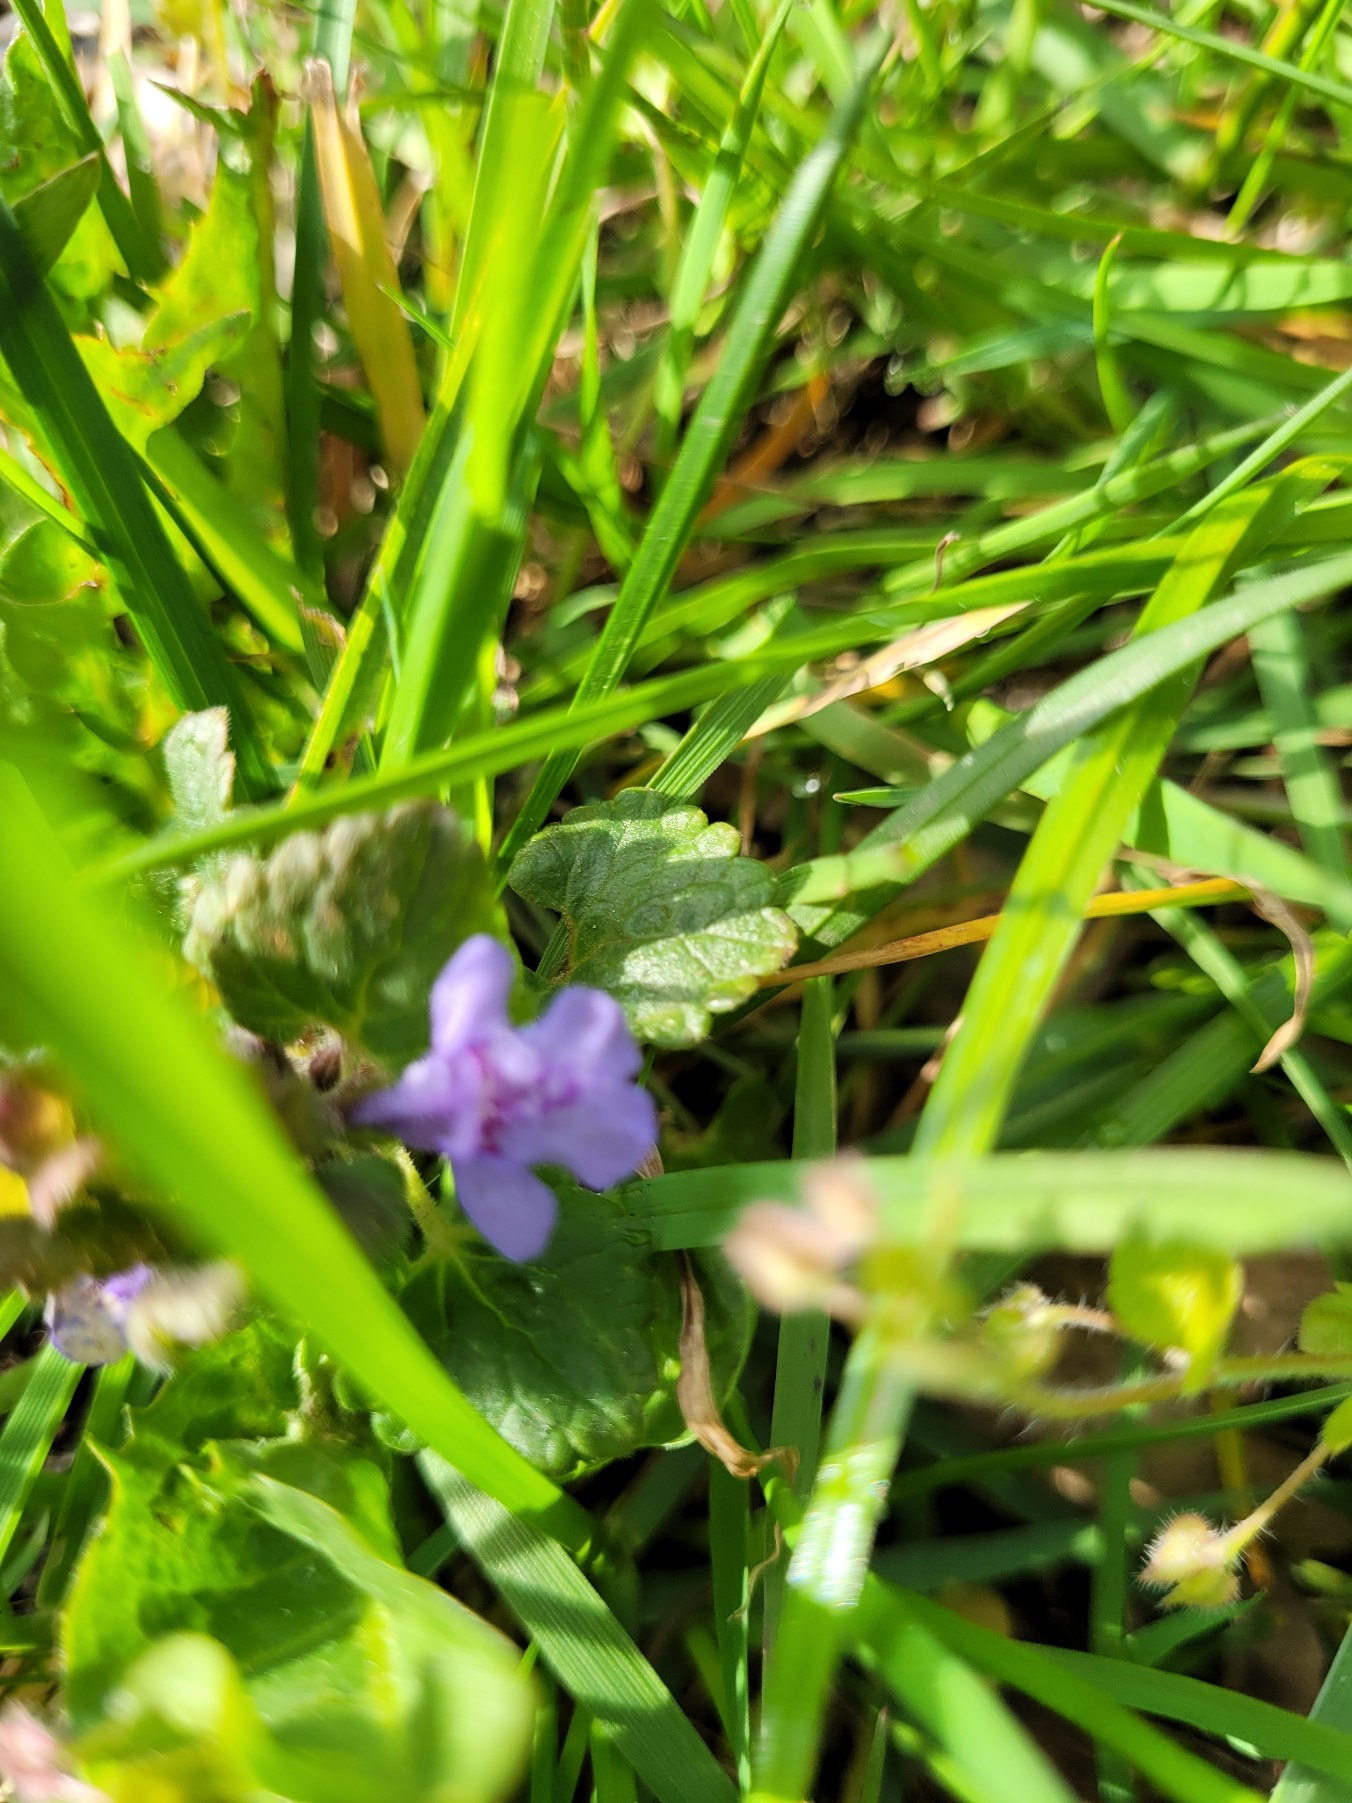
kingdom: Plantae
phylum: Tracheophyta
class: Magnoliopsida
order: Lamiales
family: Lamiaceae
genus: Glechoma
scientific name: Glechoma hederacea
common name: Korsknap
